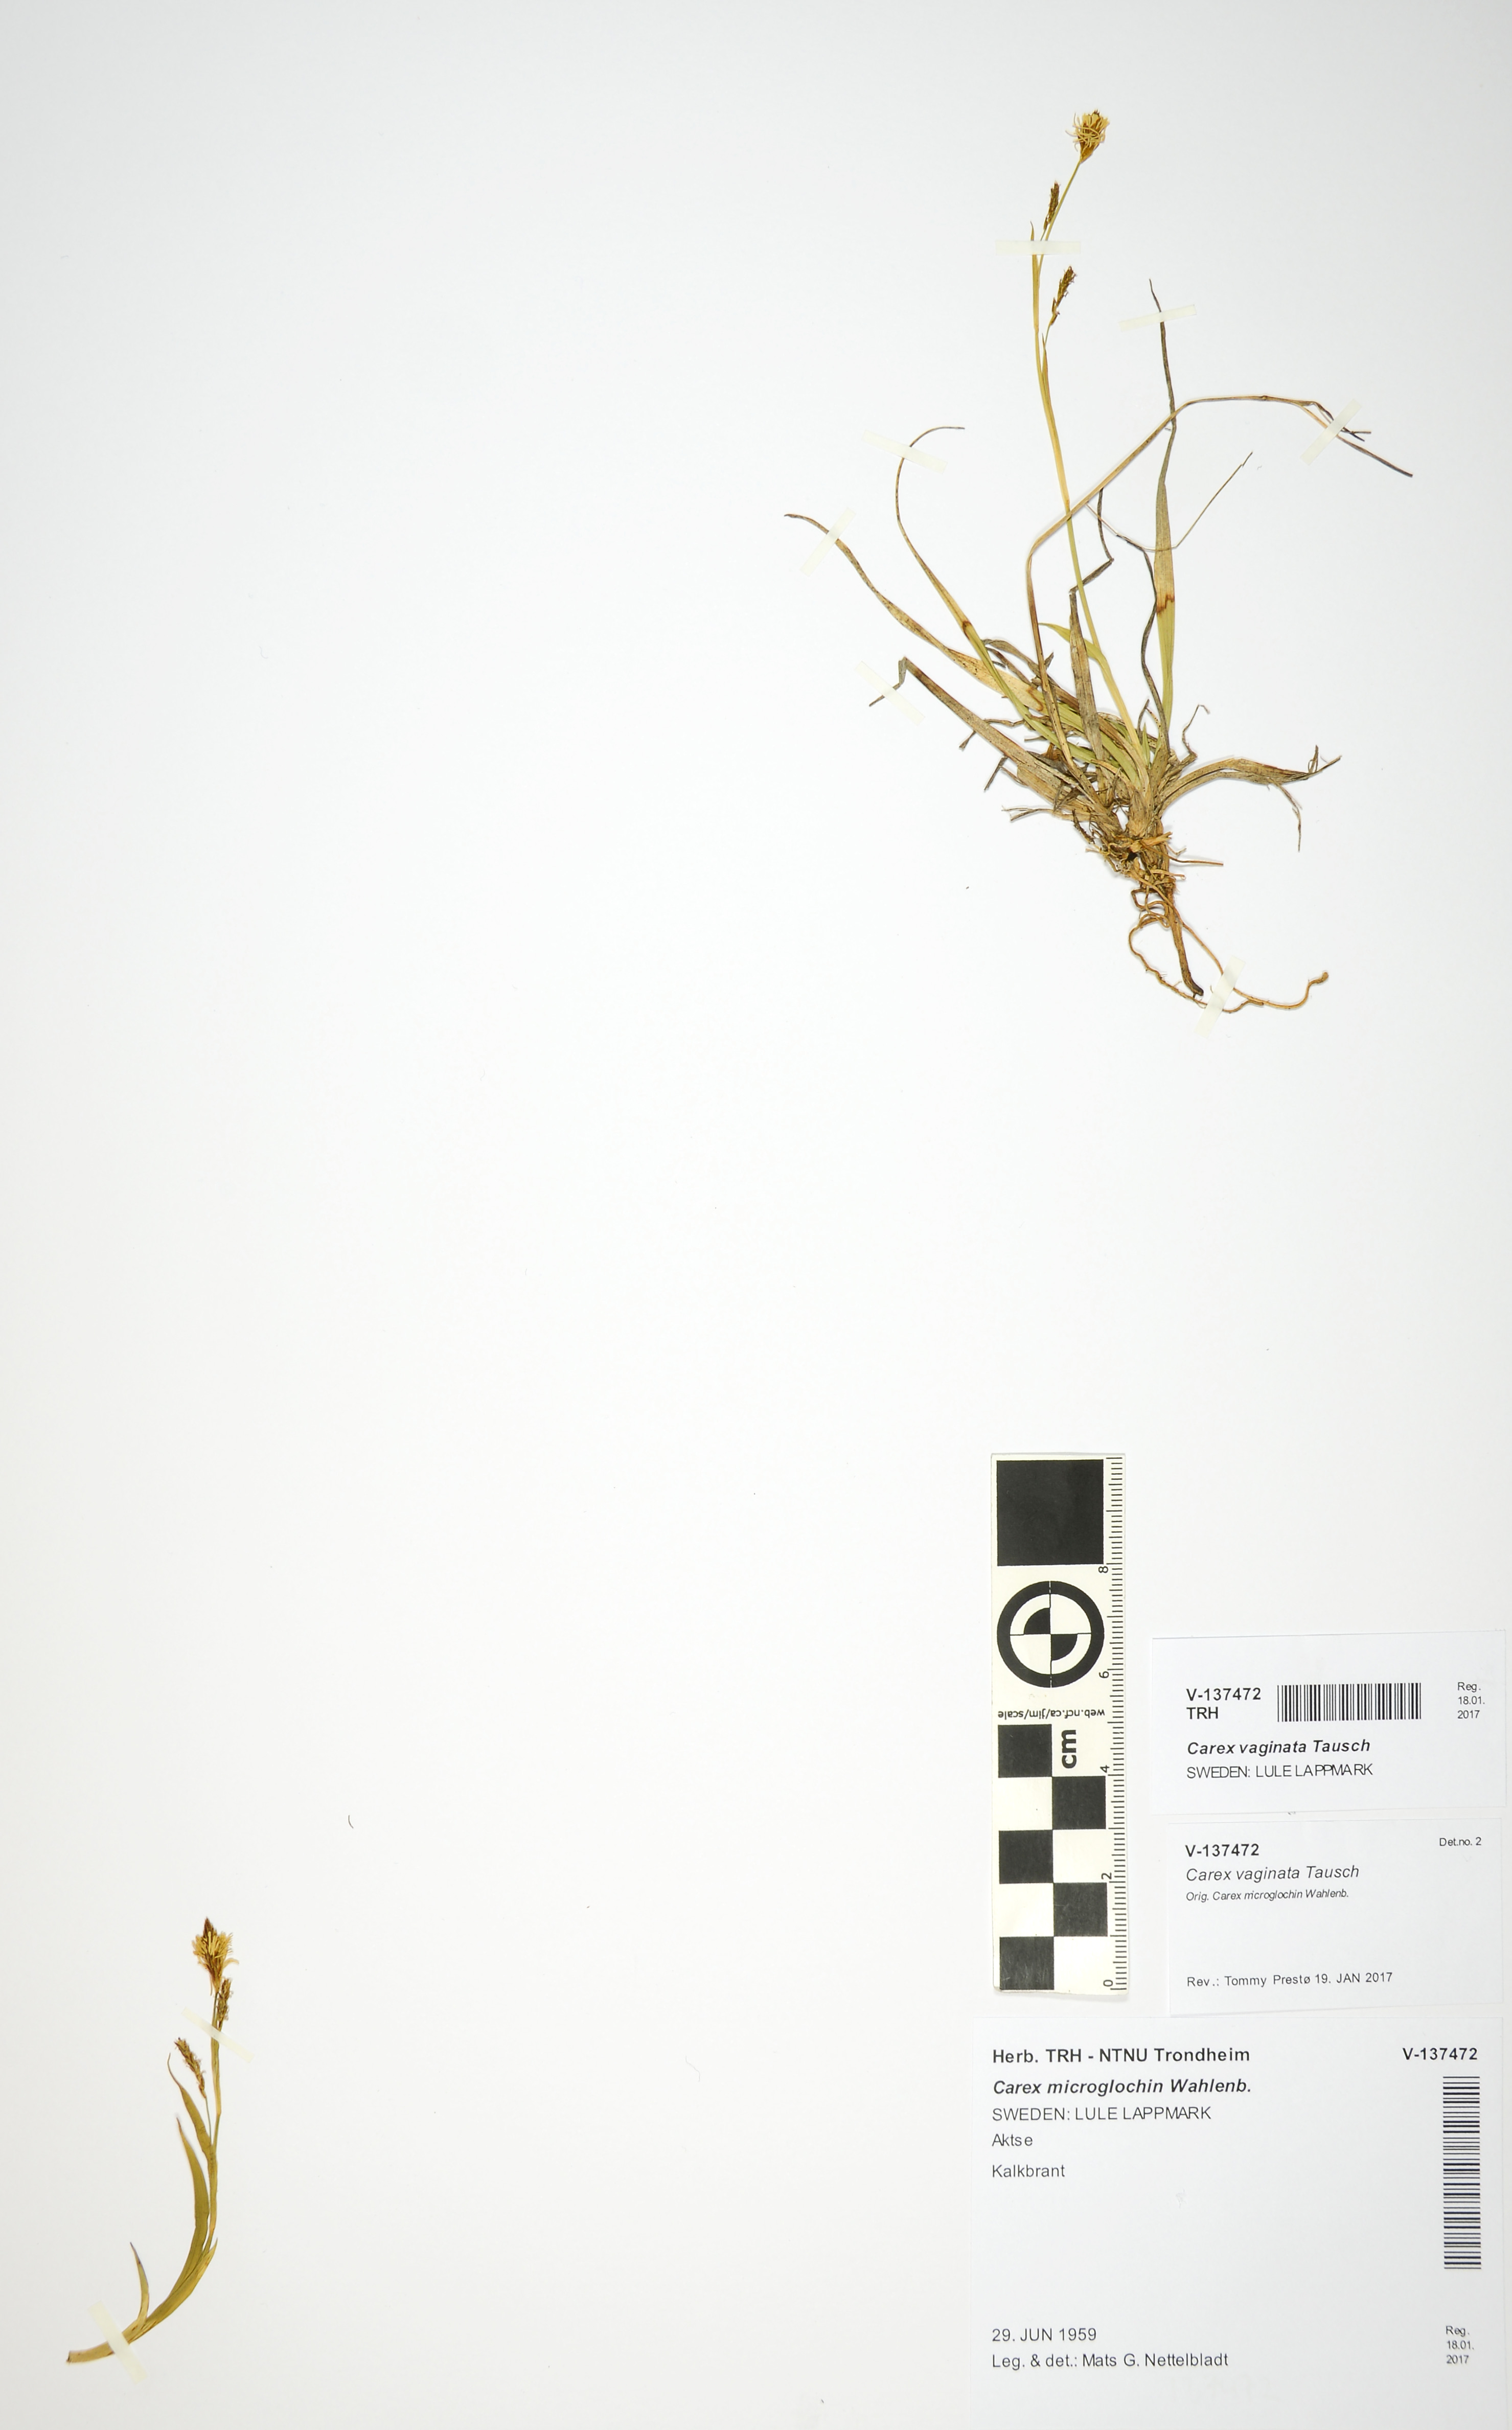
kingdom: Plantae
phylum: Tracheophyta
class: Liliopsida
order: Poales
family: Cyperaceae
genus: Carex
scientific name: Carex vaginata
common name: Sheathed sedge
